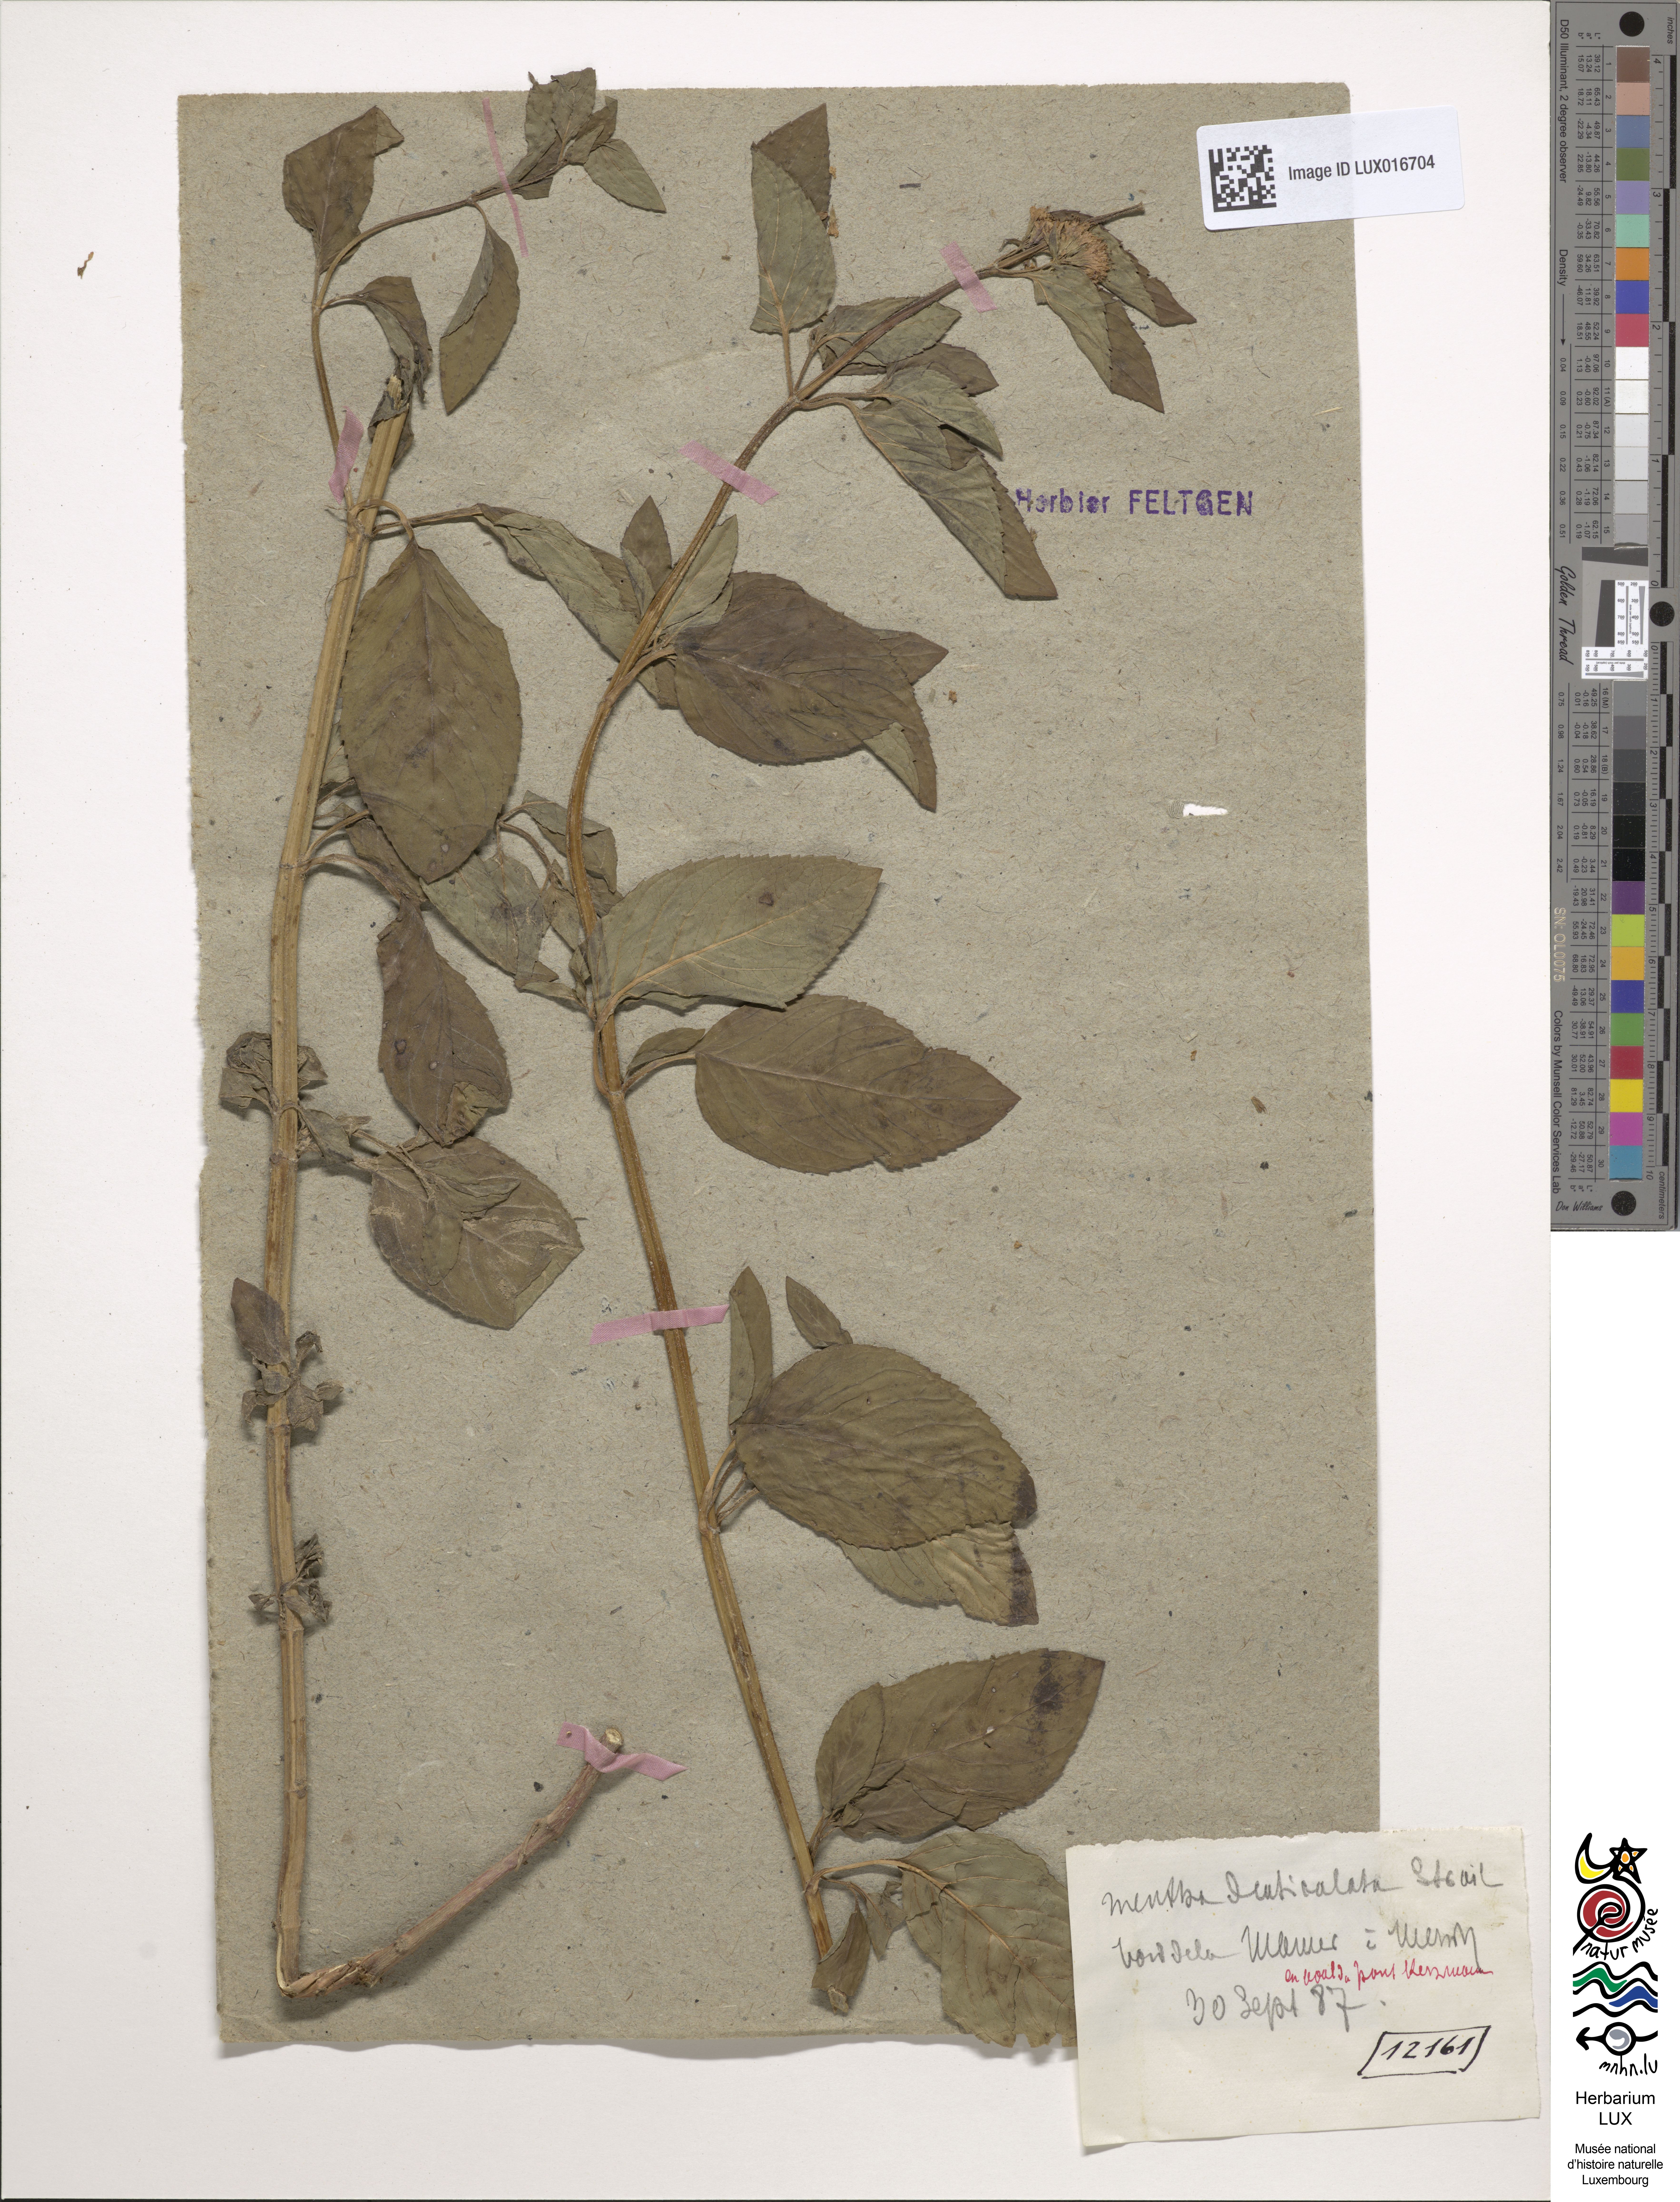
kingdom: Plantae
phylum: Tracheophyta
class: Magnoliopsida
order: Lamiales
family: Lamiaceae
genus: Mentha
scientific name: Mentha aquatica
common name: Water mint
